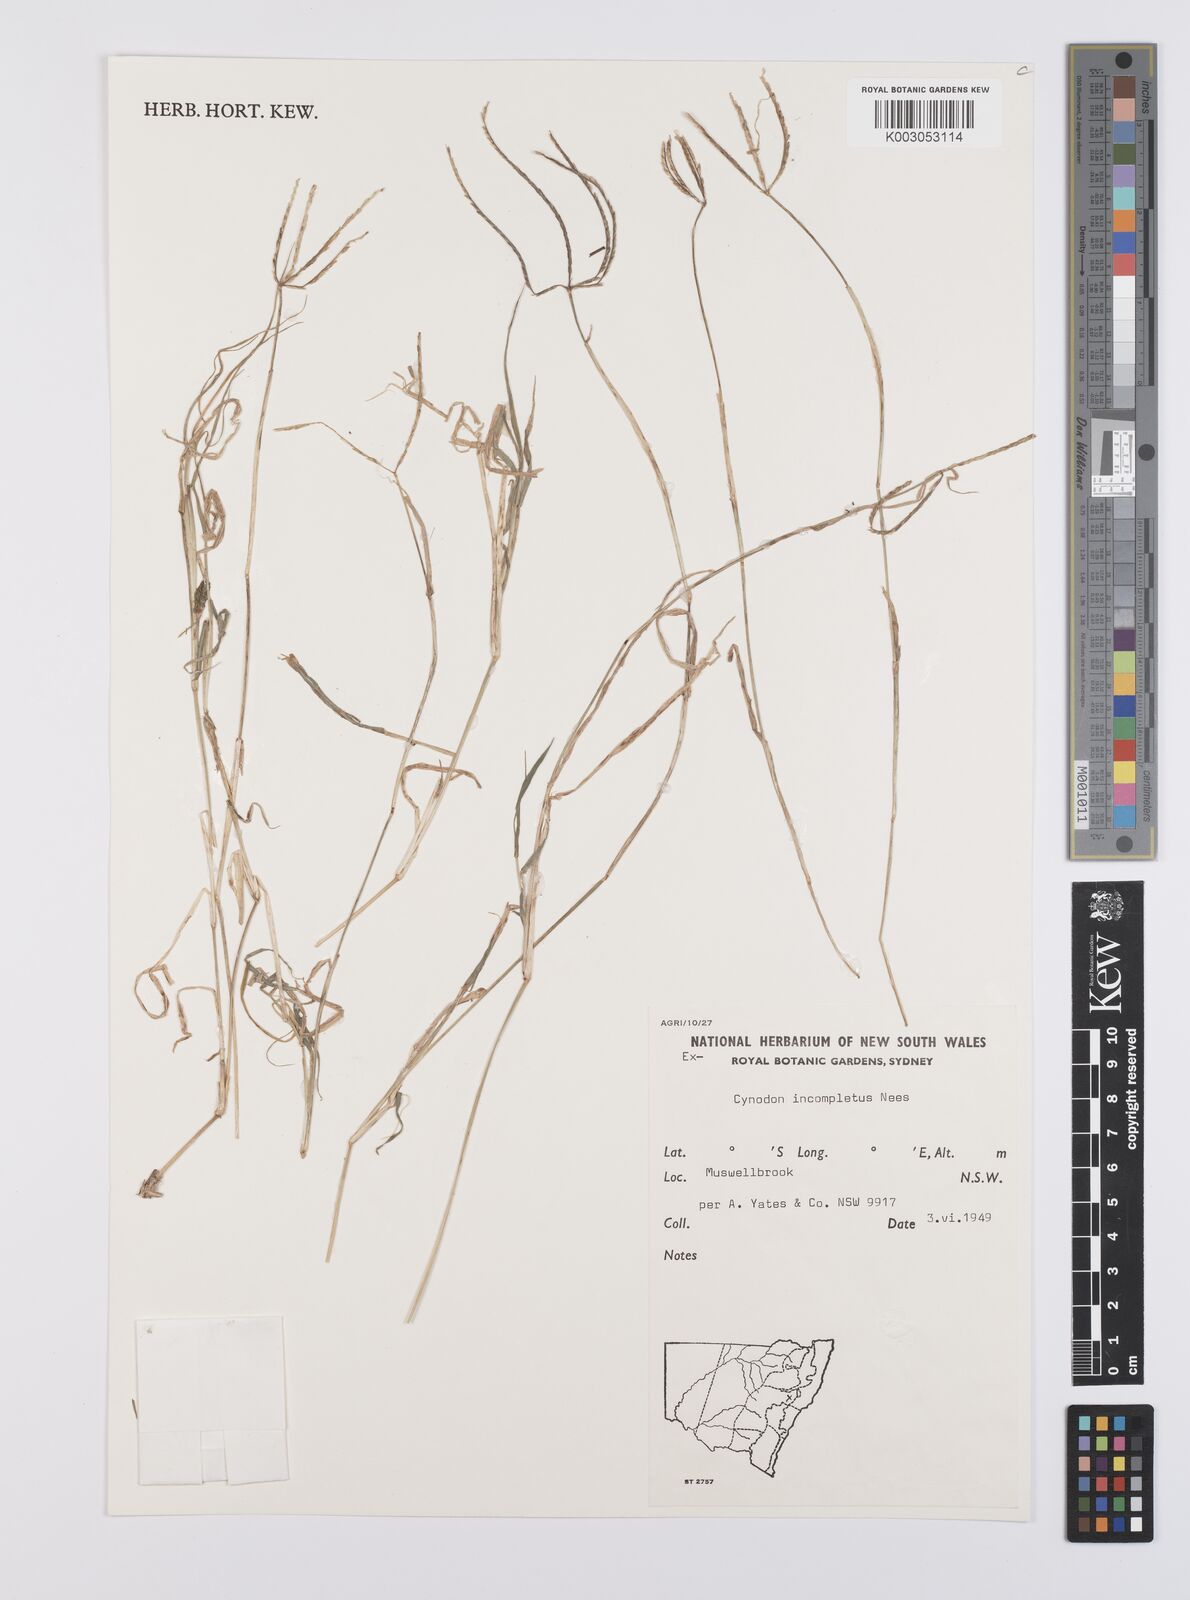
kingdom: Plantae
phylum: Tracheophyta
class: Liliopsida
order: Poales
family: Poaceae
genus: Cynodon
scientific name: Cynodon incompletus
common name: African bermuda-grass
